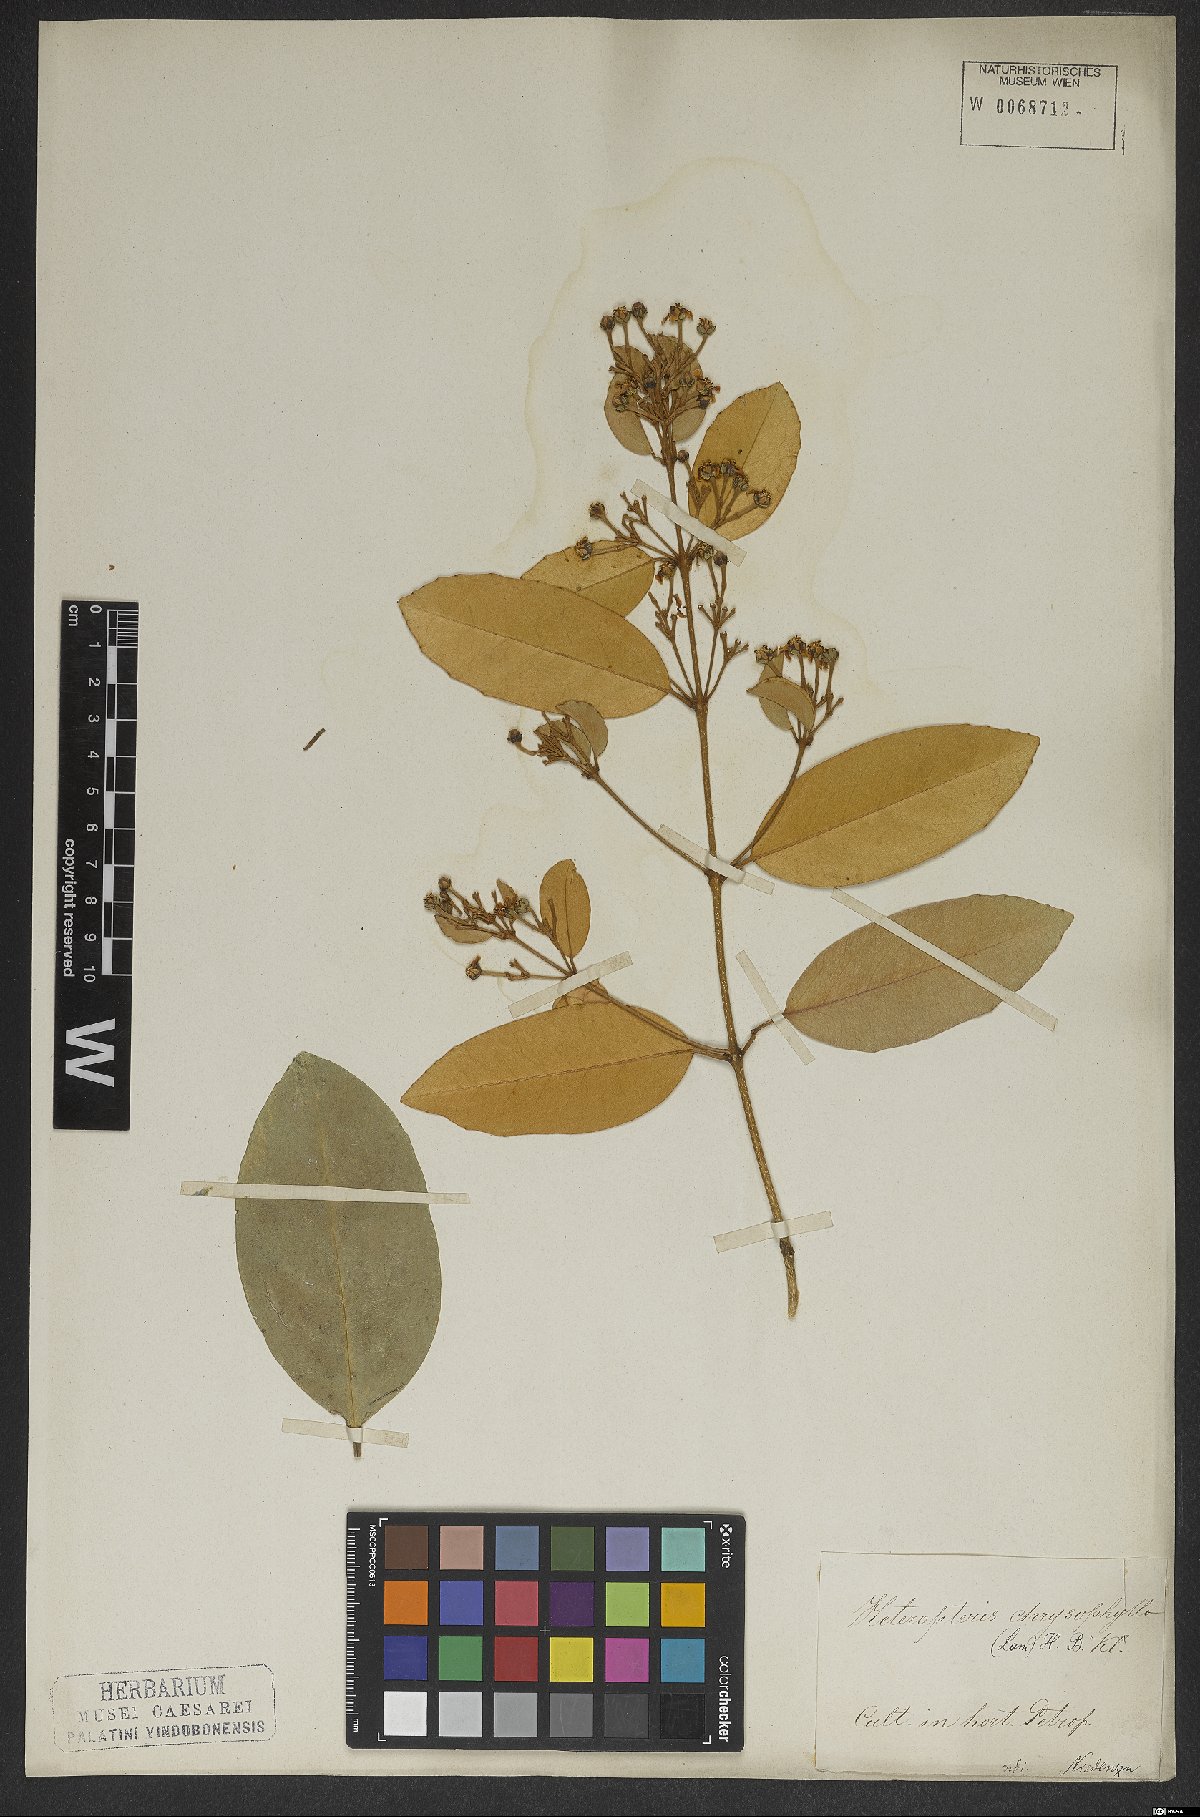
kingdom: Plantae
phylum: Tracheophyta
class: Magnoliopsida
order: Malpighiales
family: Malpighiaceae
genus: Heteropterys
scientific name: Heteropterys chrysophylla
